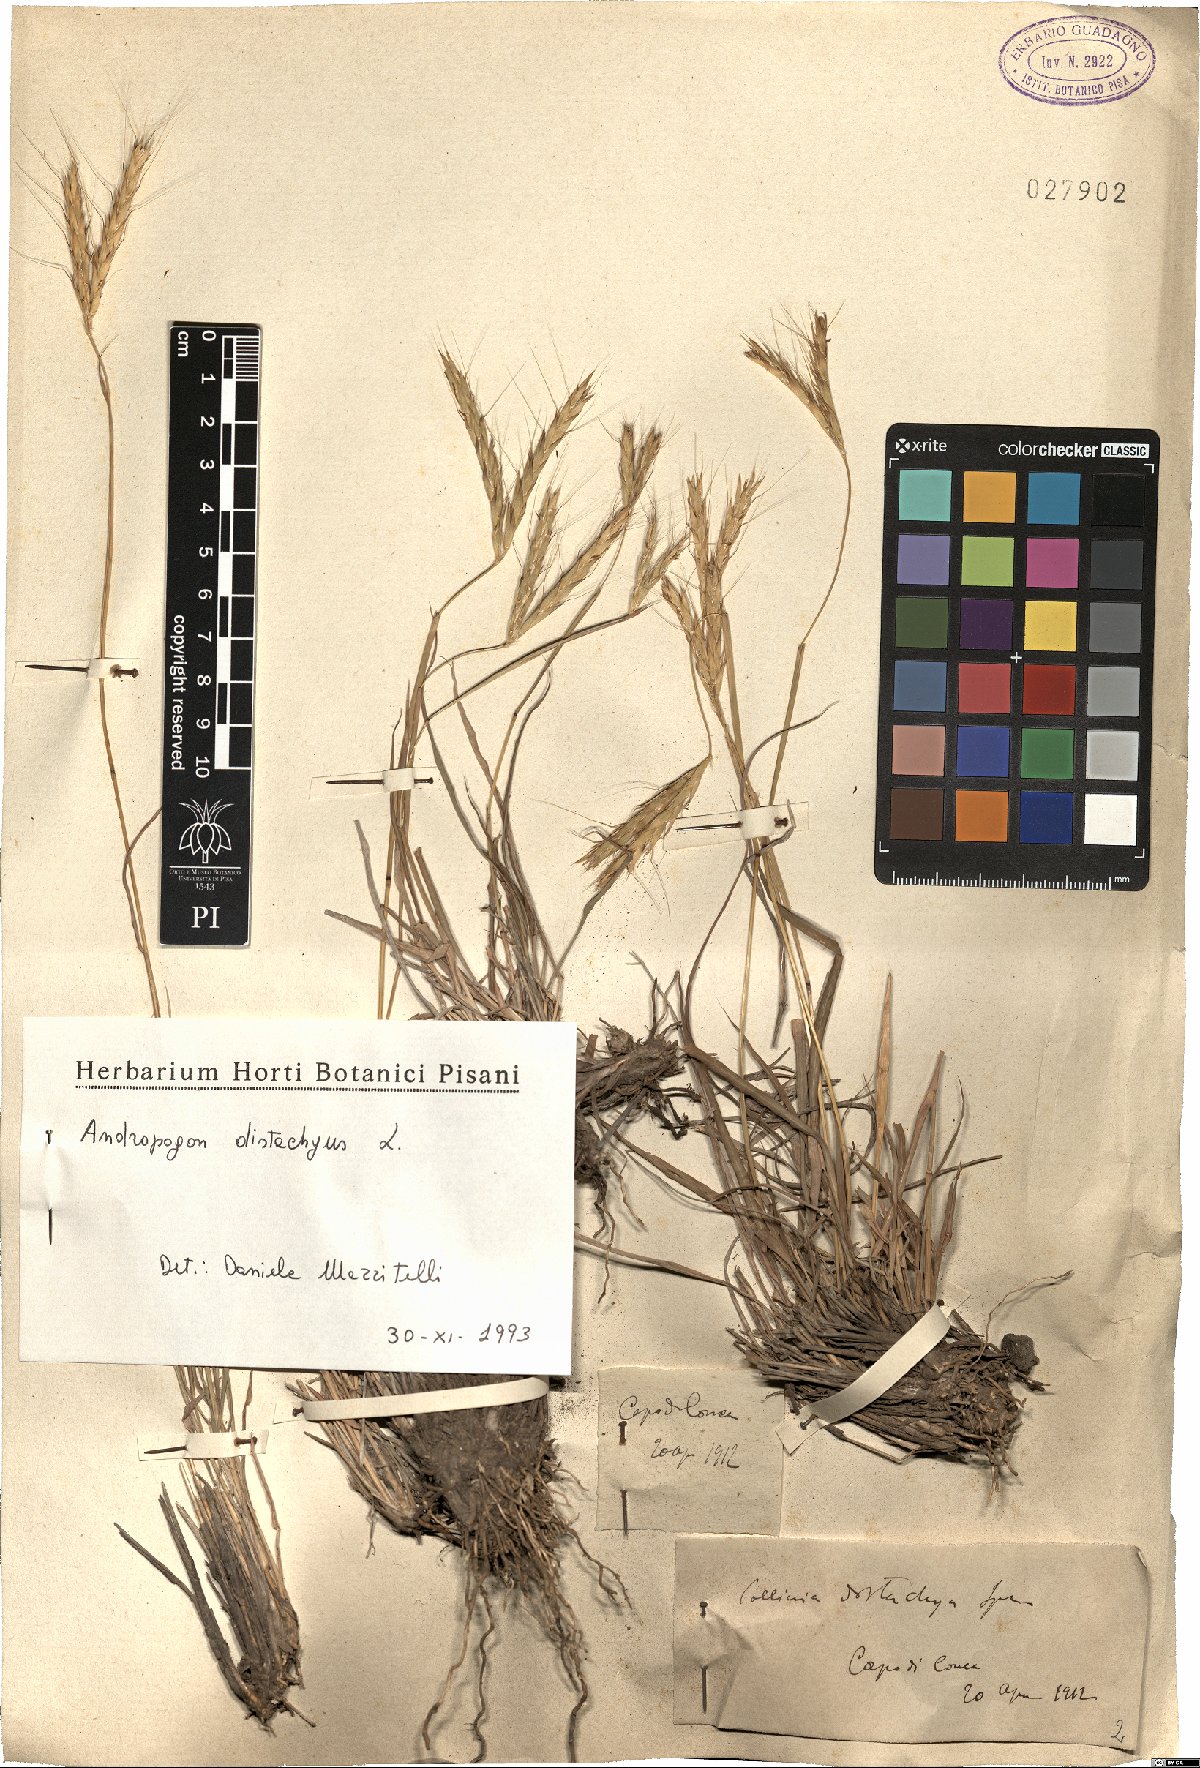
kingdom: Plantae
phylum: Tracheophyta
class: Liliopsida
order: Poales
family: Poaceae
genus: Andropogon
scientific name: Andropogon distachyos
